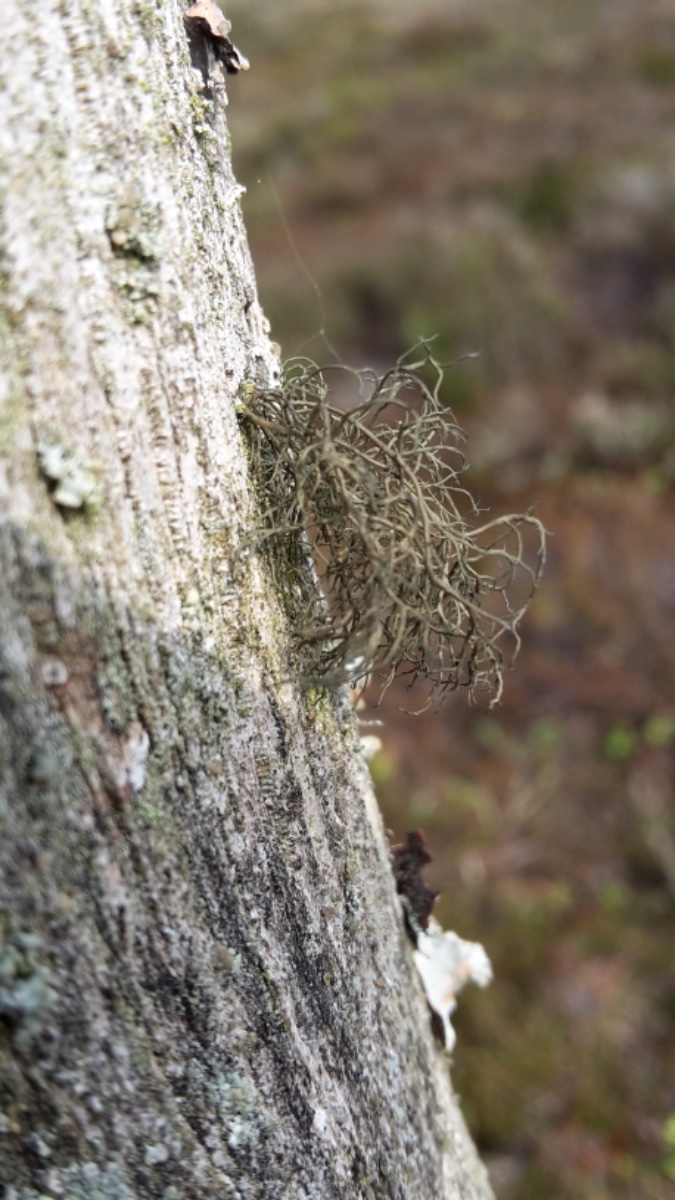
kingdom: Fungi
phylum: Ascomycota
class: Lecanoromycetes
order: Lecanorales
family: Parmeliaceae
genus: Bryoria
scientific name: Bryoria
